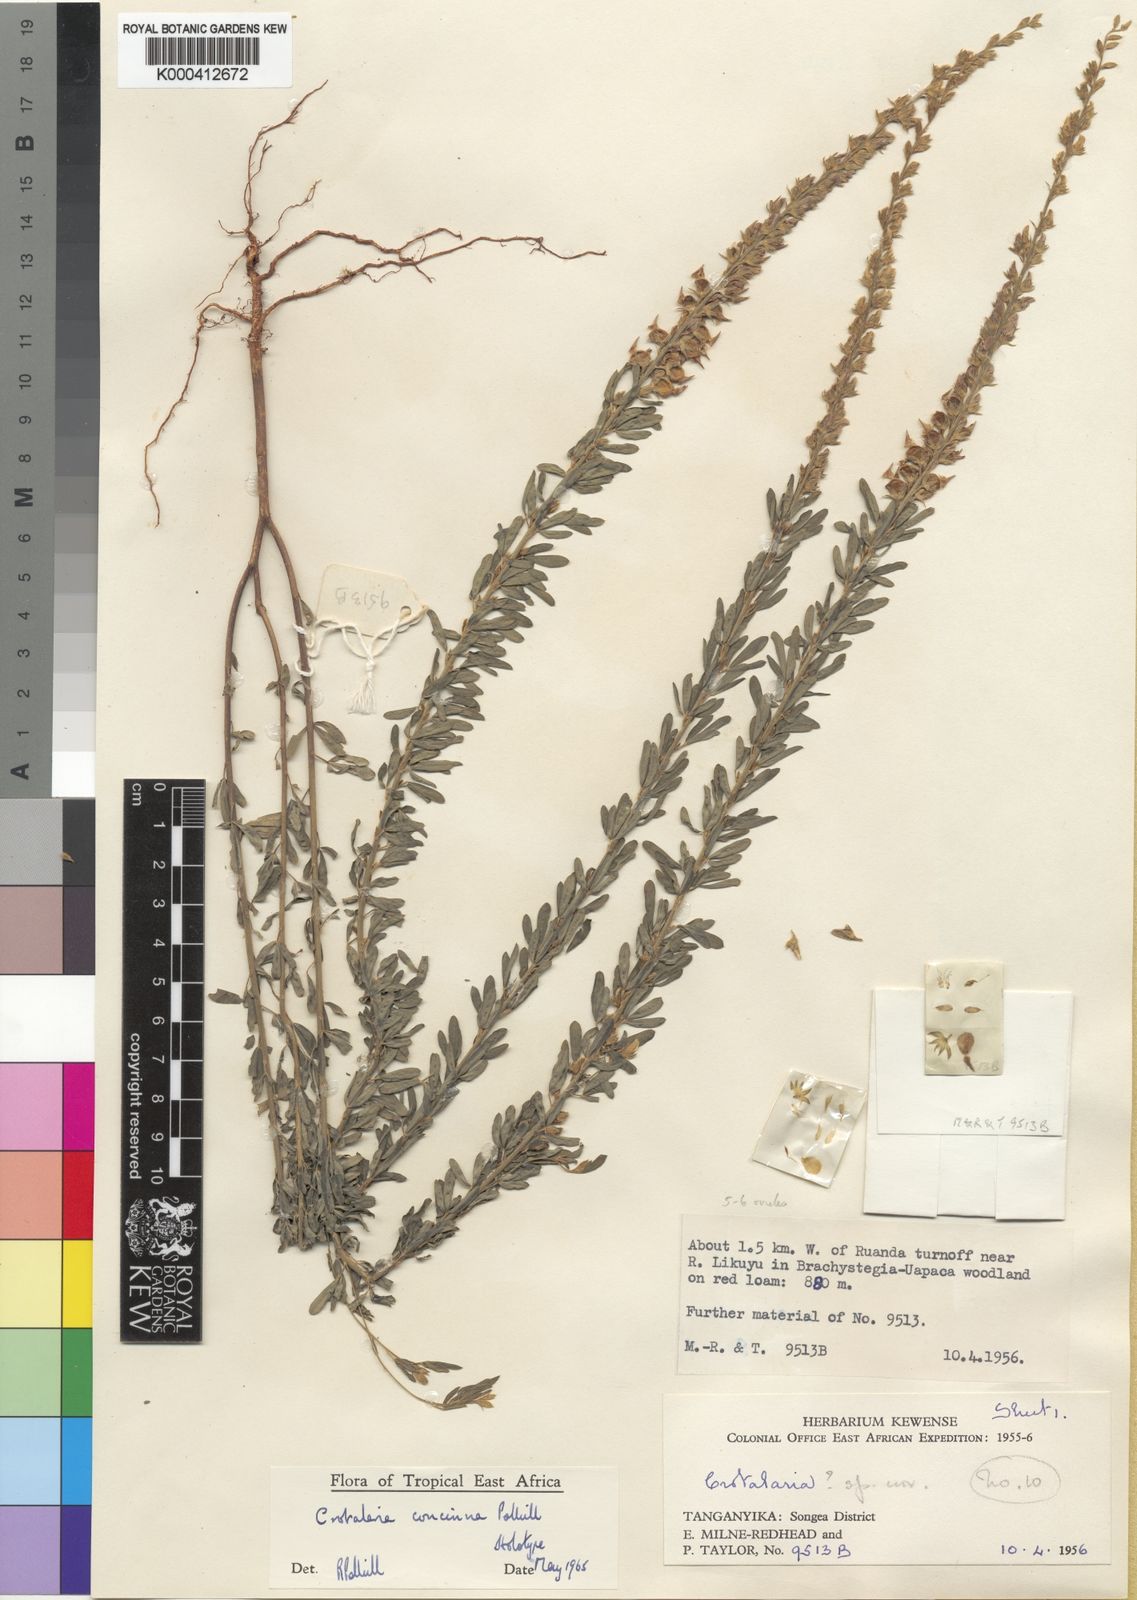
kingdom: Plantae
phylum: Tracheophyta
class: Magnoliopsida
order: Fabales
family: Fabaceae
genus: Crotalaria
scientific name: Crotalaria concinna
